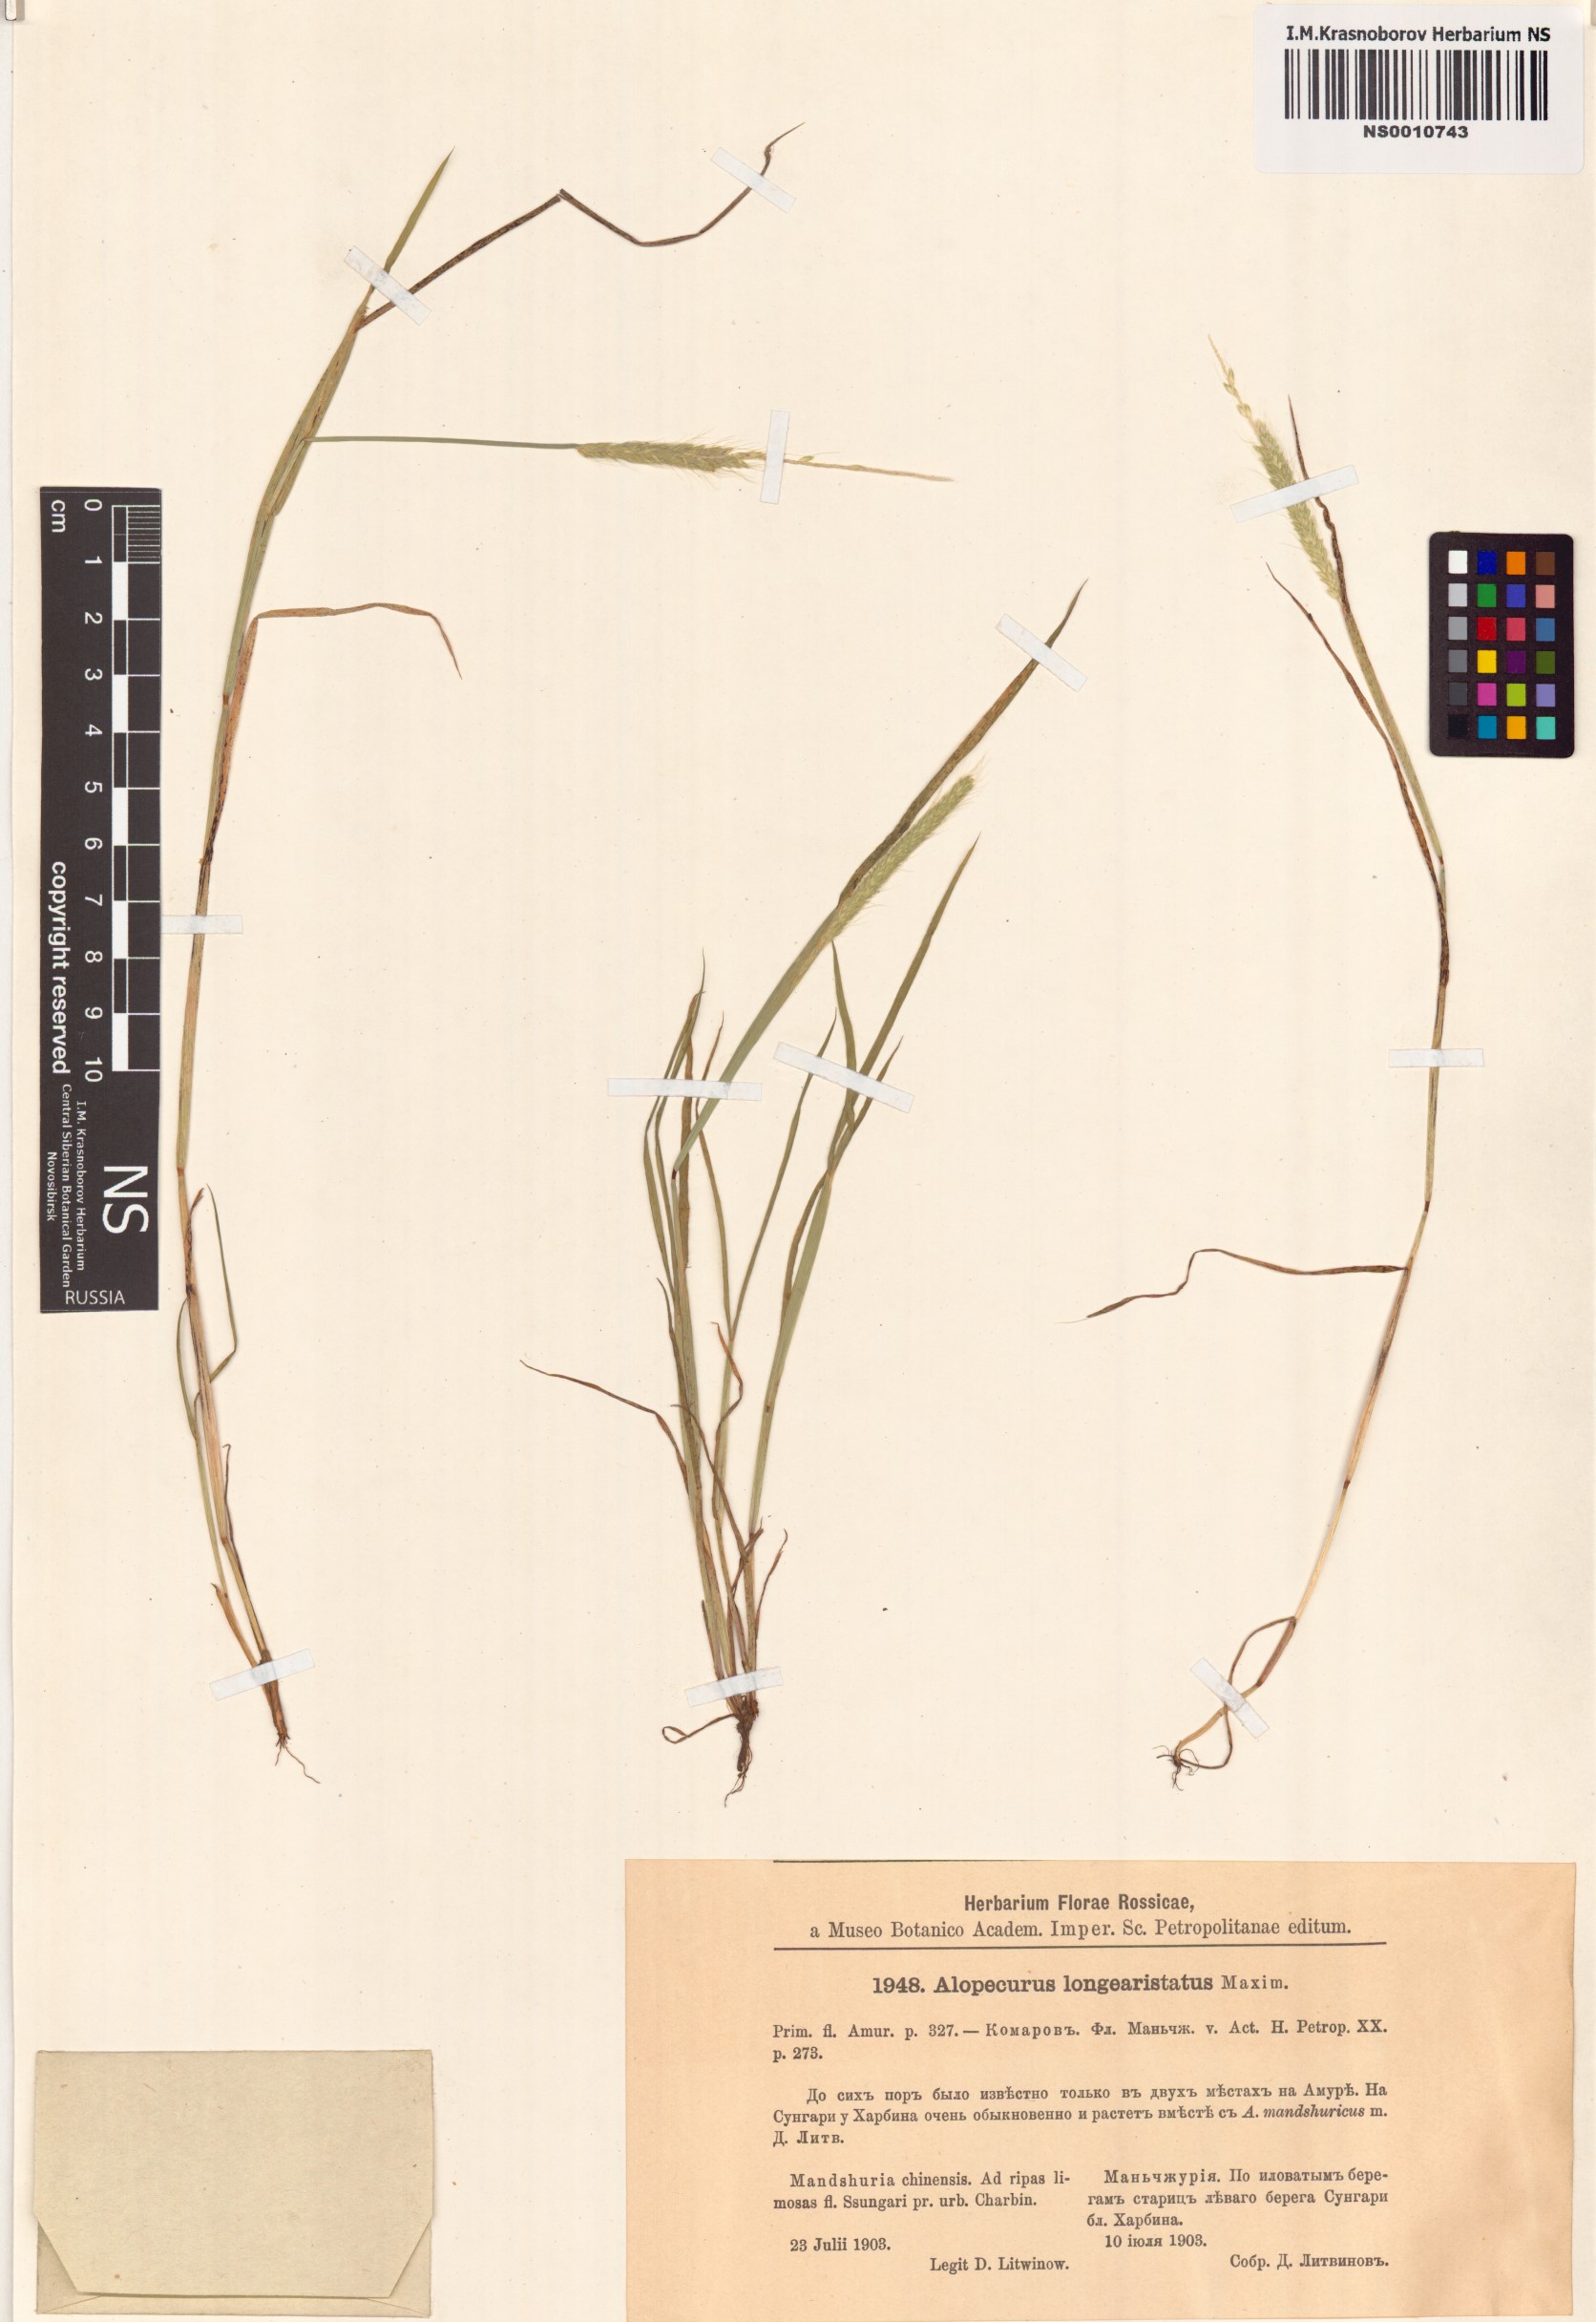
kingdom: Plantae
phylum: Tracheophyta
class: Liliopsida
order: Poales
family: Poaceae
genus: Alopecurus
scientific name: Alopecurus longiaristatus
